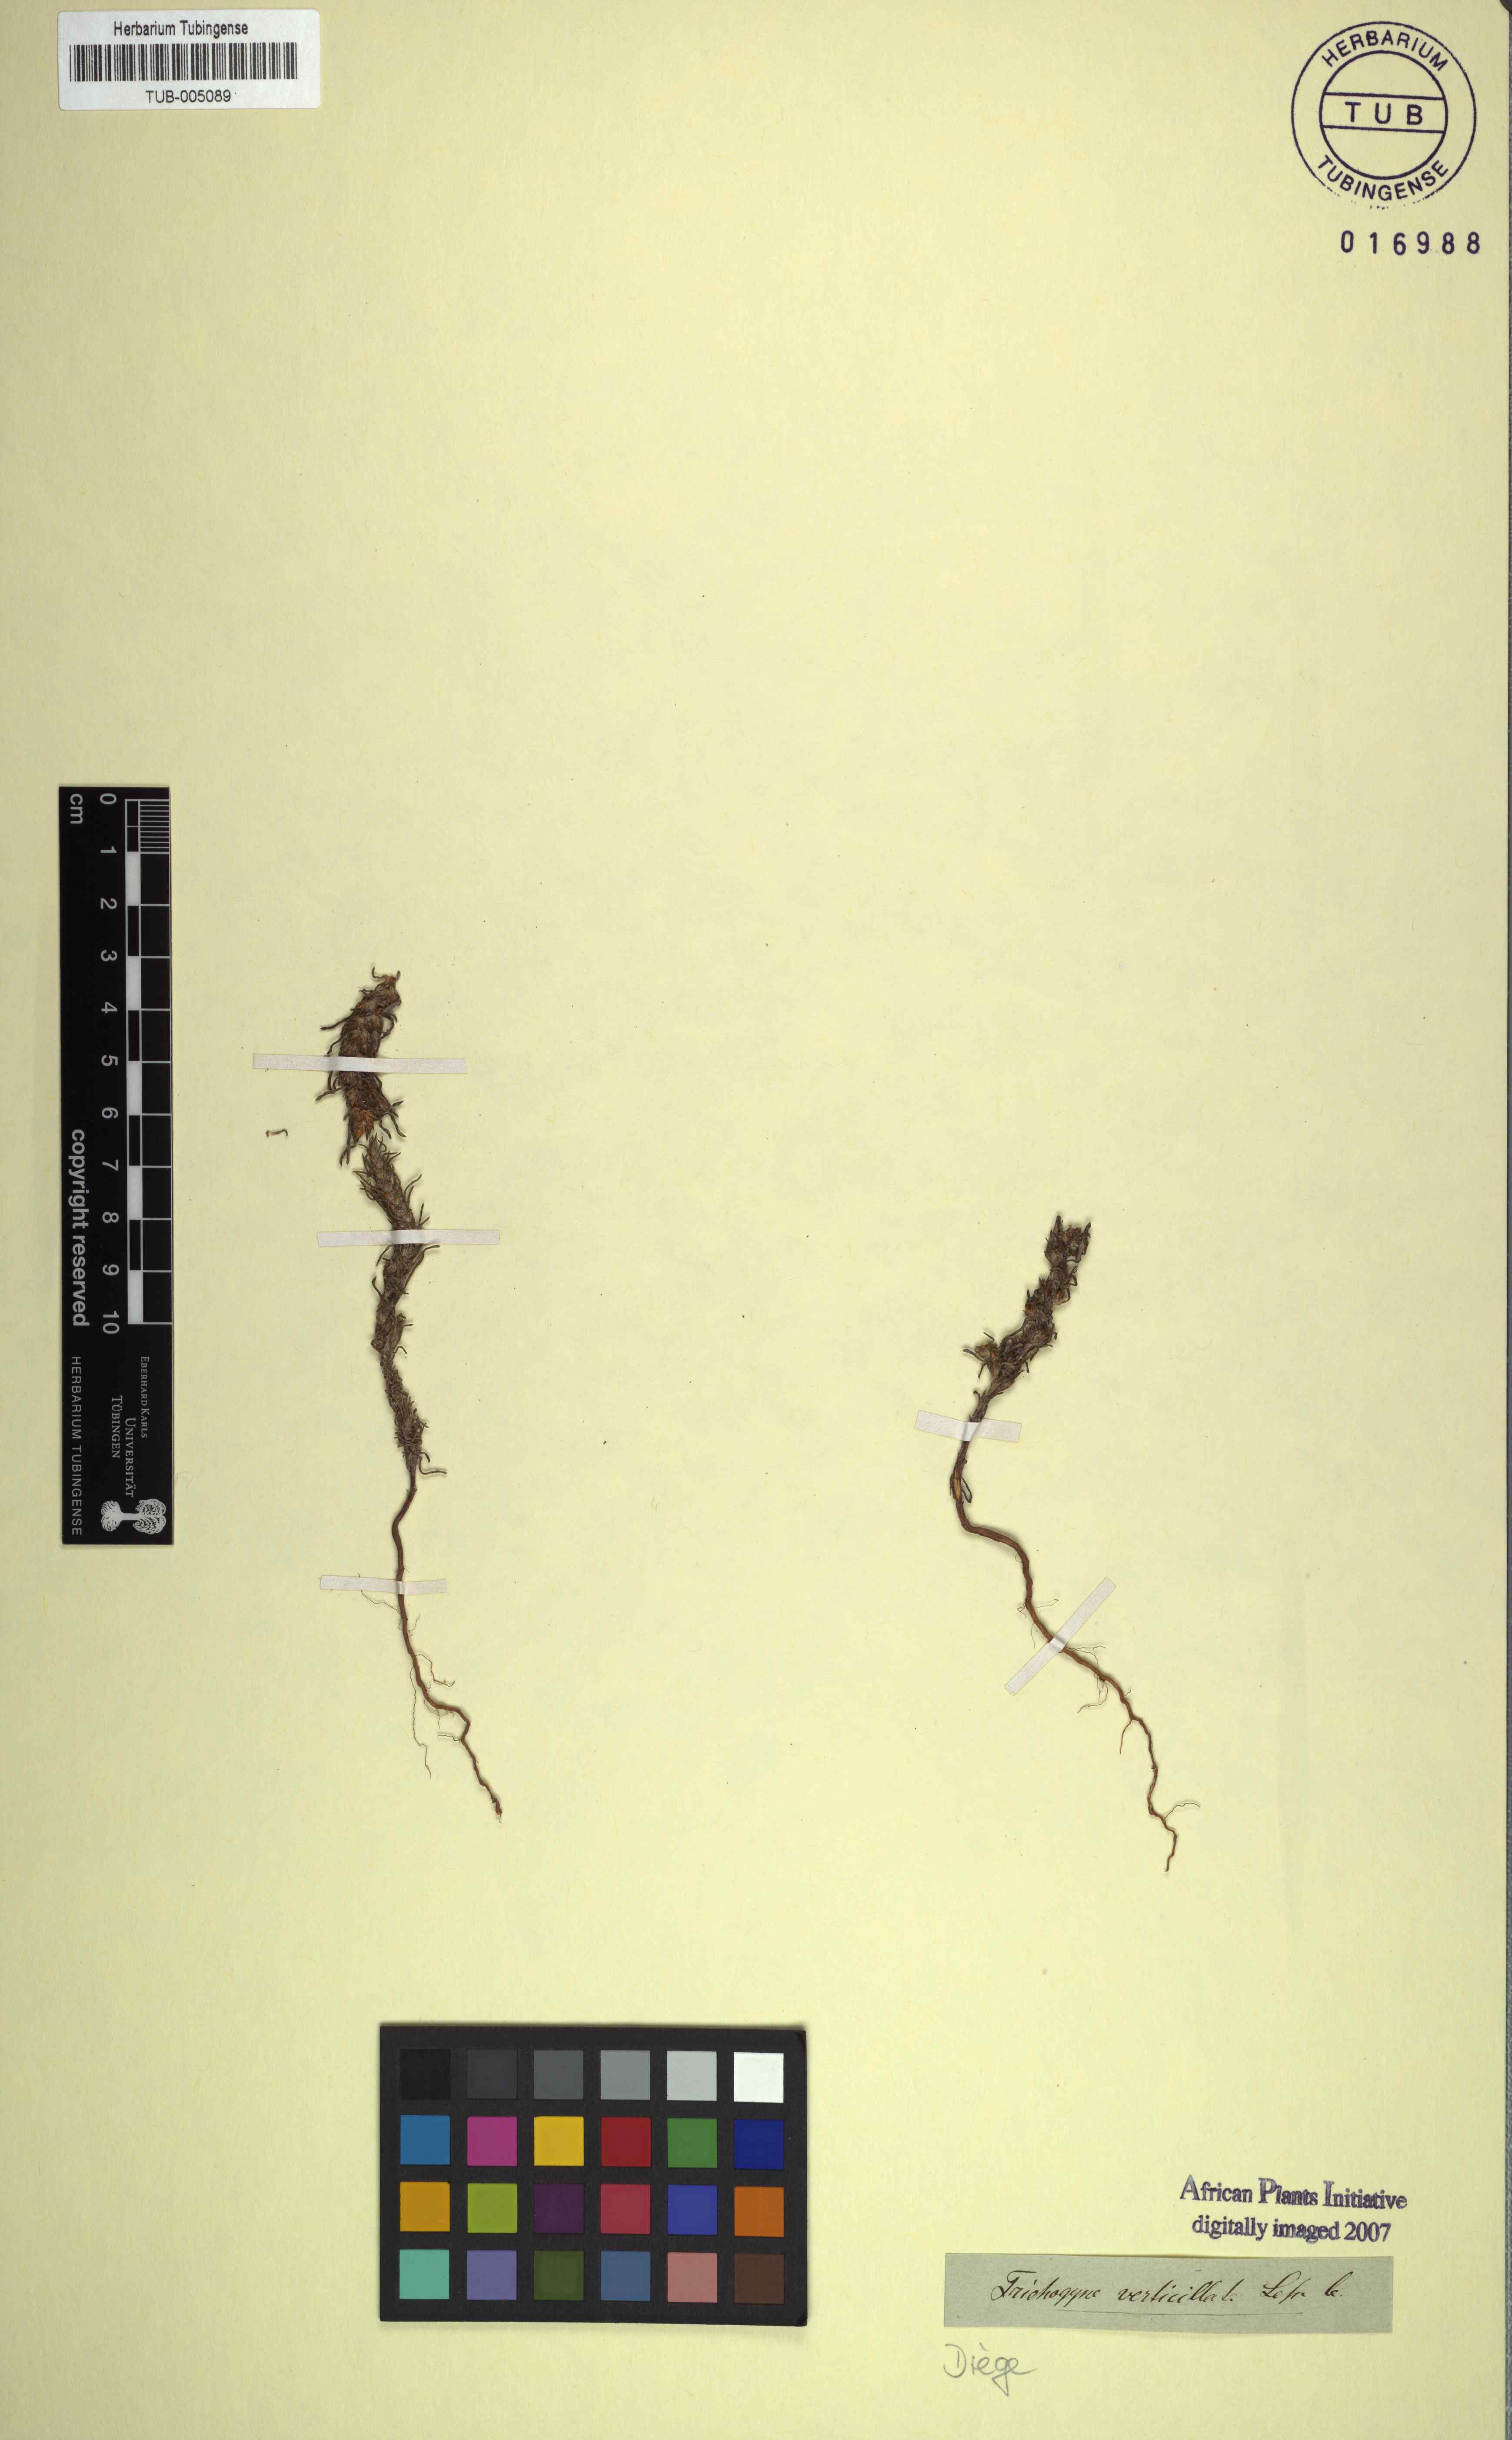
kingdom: Plantae
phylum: Tracheophyta
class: Magnoliopsida
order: Asterales
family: Asteraceae
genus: Ifloga
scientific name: Ifloga polycnemoides
